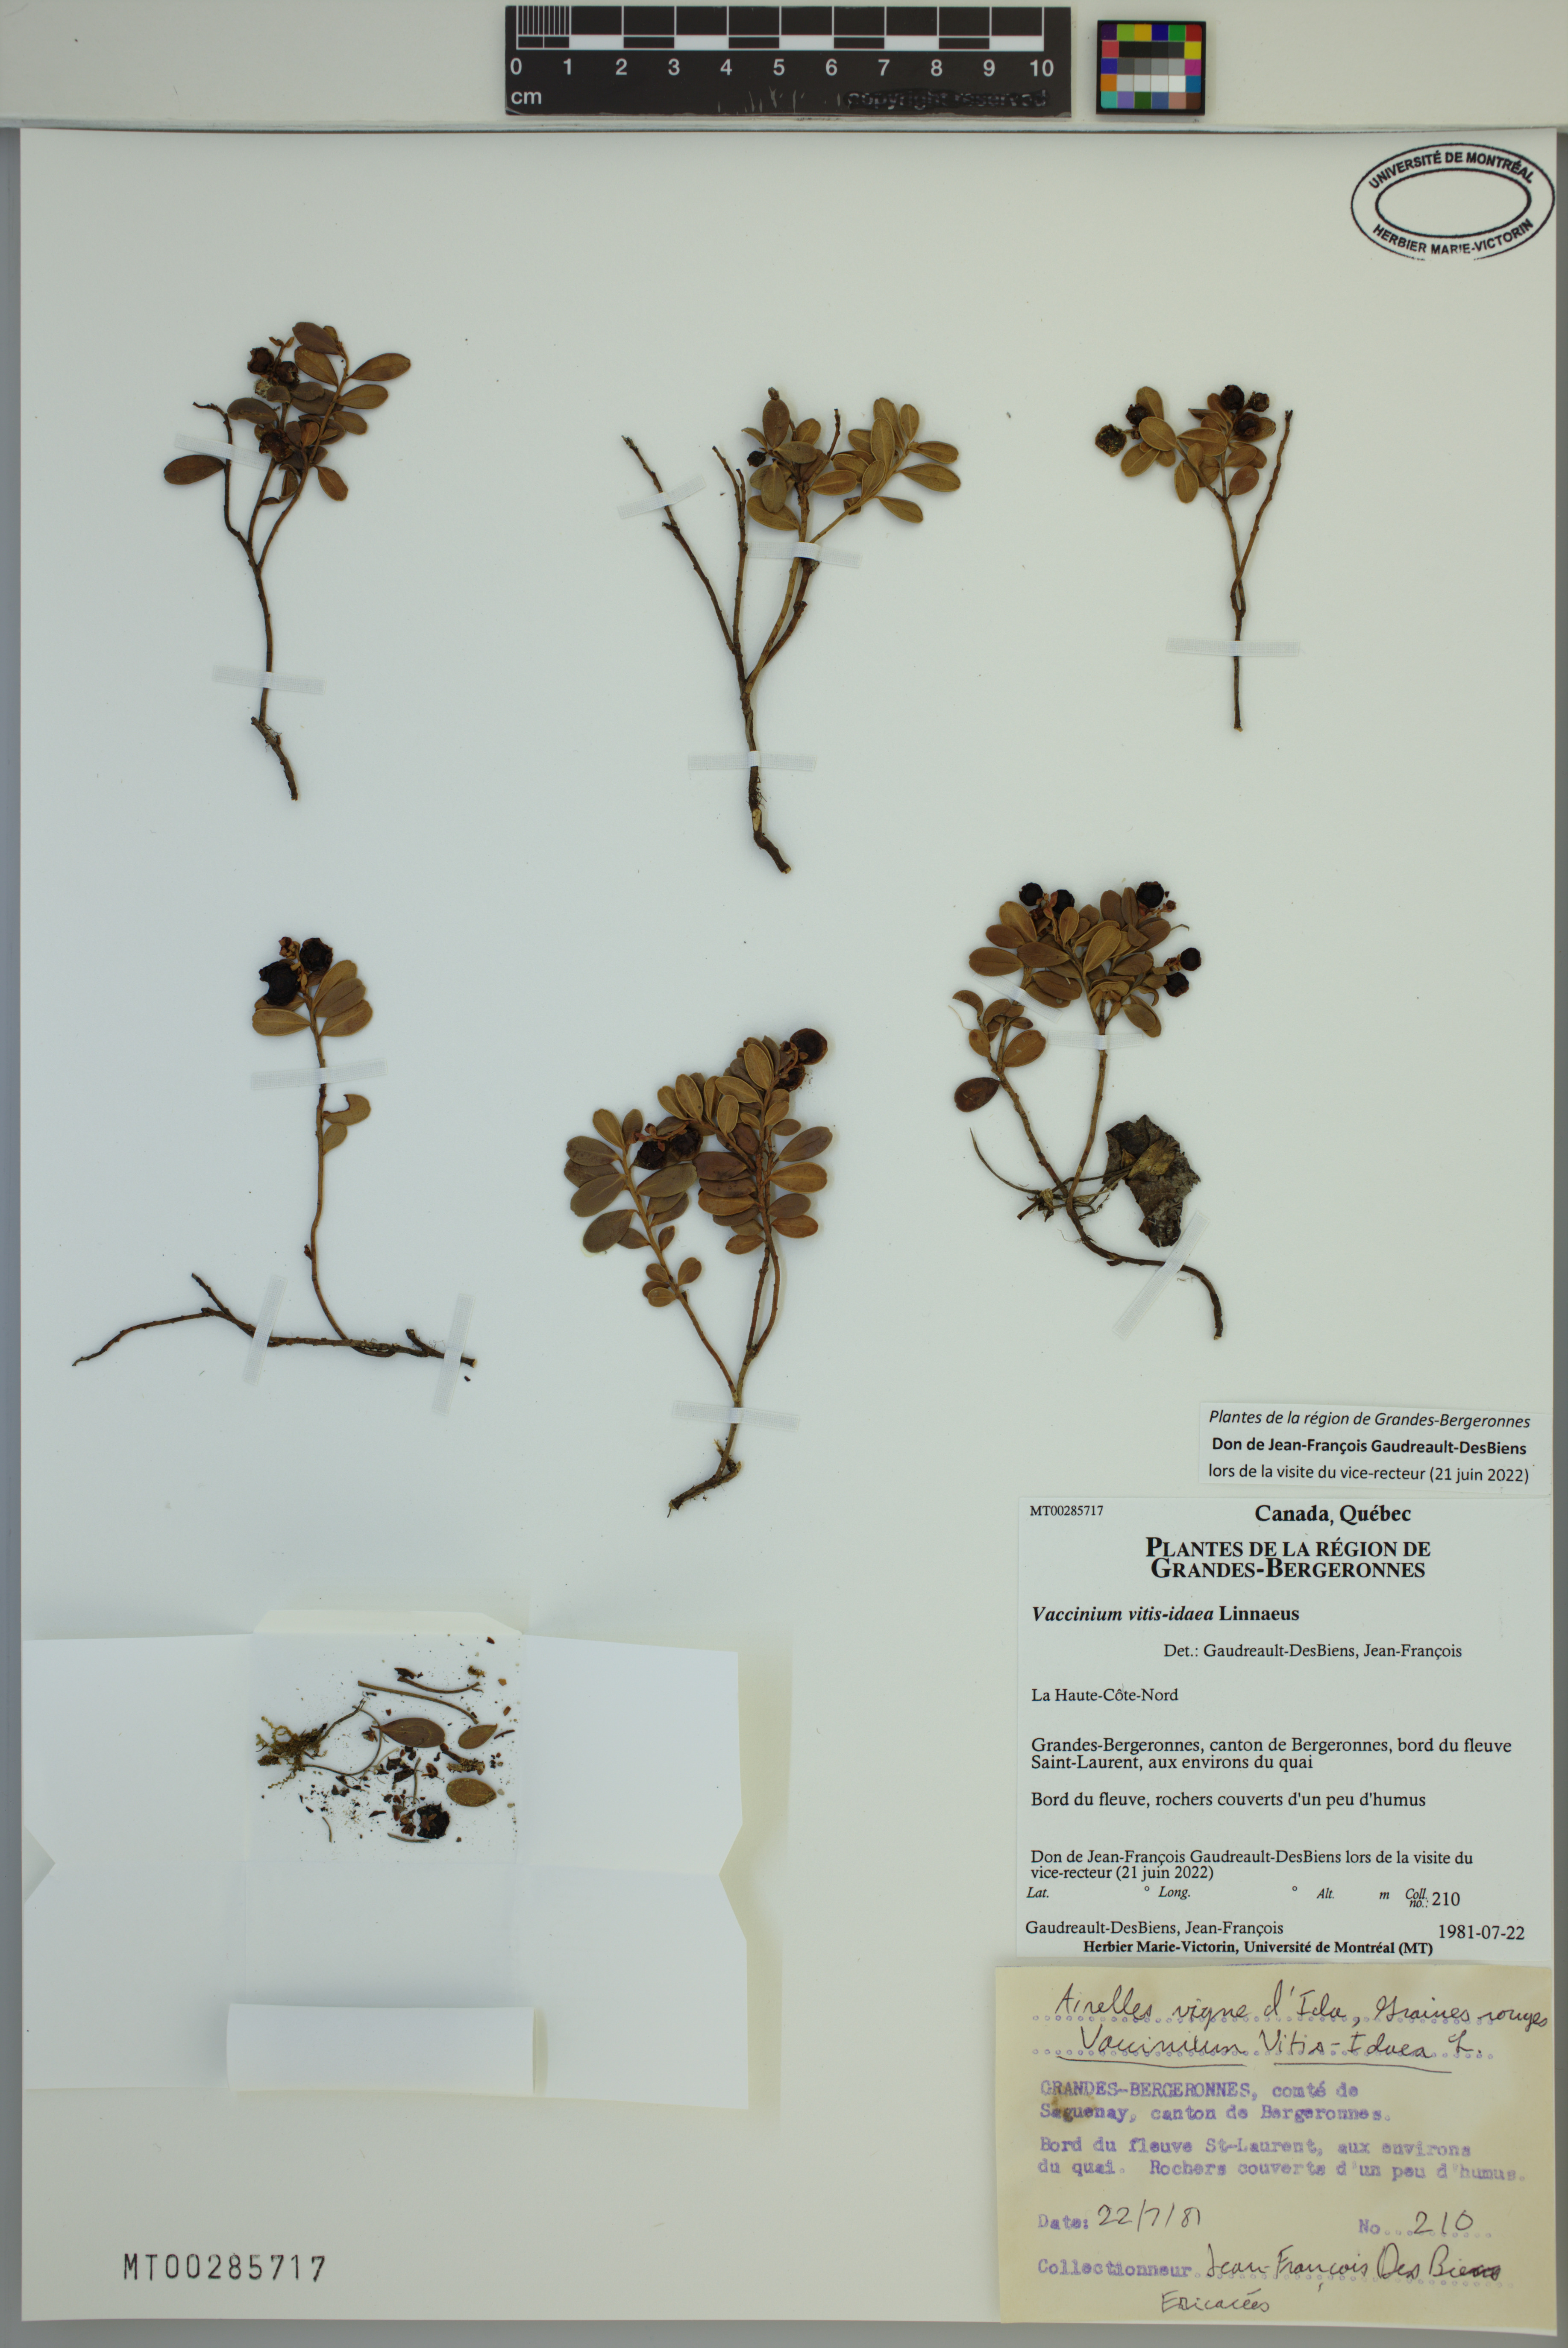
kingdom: Plantae
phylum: Tracheophyta
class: Magnoliopsida
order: Ericales
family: Ericaceae
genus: Vaccinium
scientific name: Vaccinium vitis-idaea
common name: Cowberry
